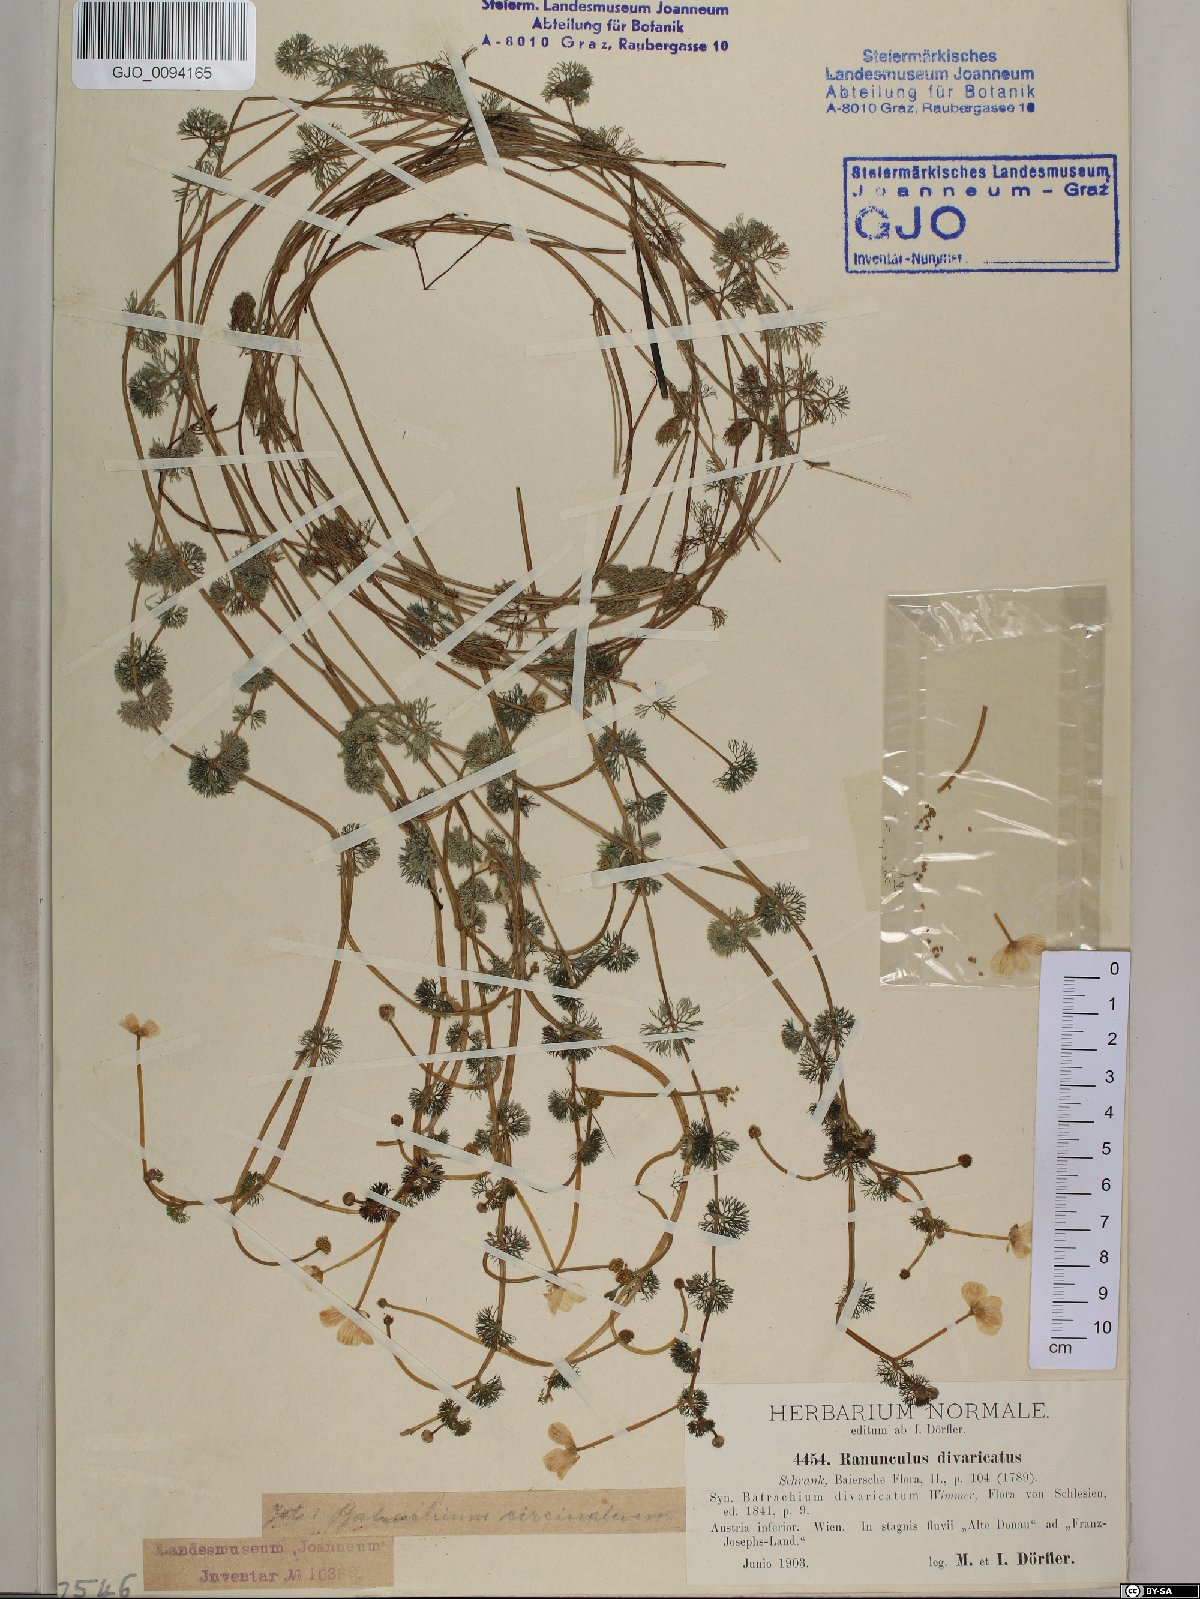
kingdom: Plantae
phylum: Tracheophyta
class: Magnoliopsida
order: Ranunculales
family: Ranunculaceae
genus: Ranunculus
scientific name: Ranunculus trichophyllus
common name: Thread-leaved water-crowfoot
